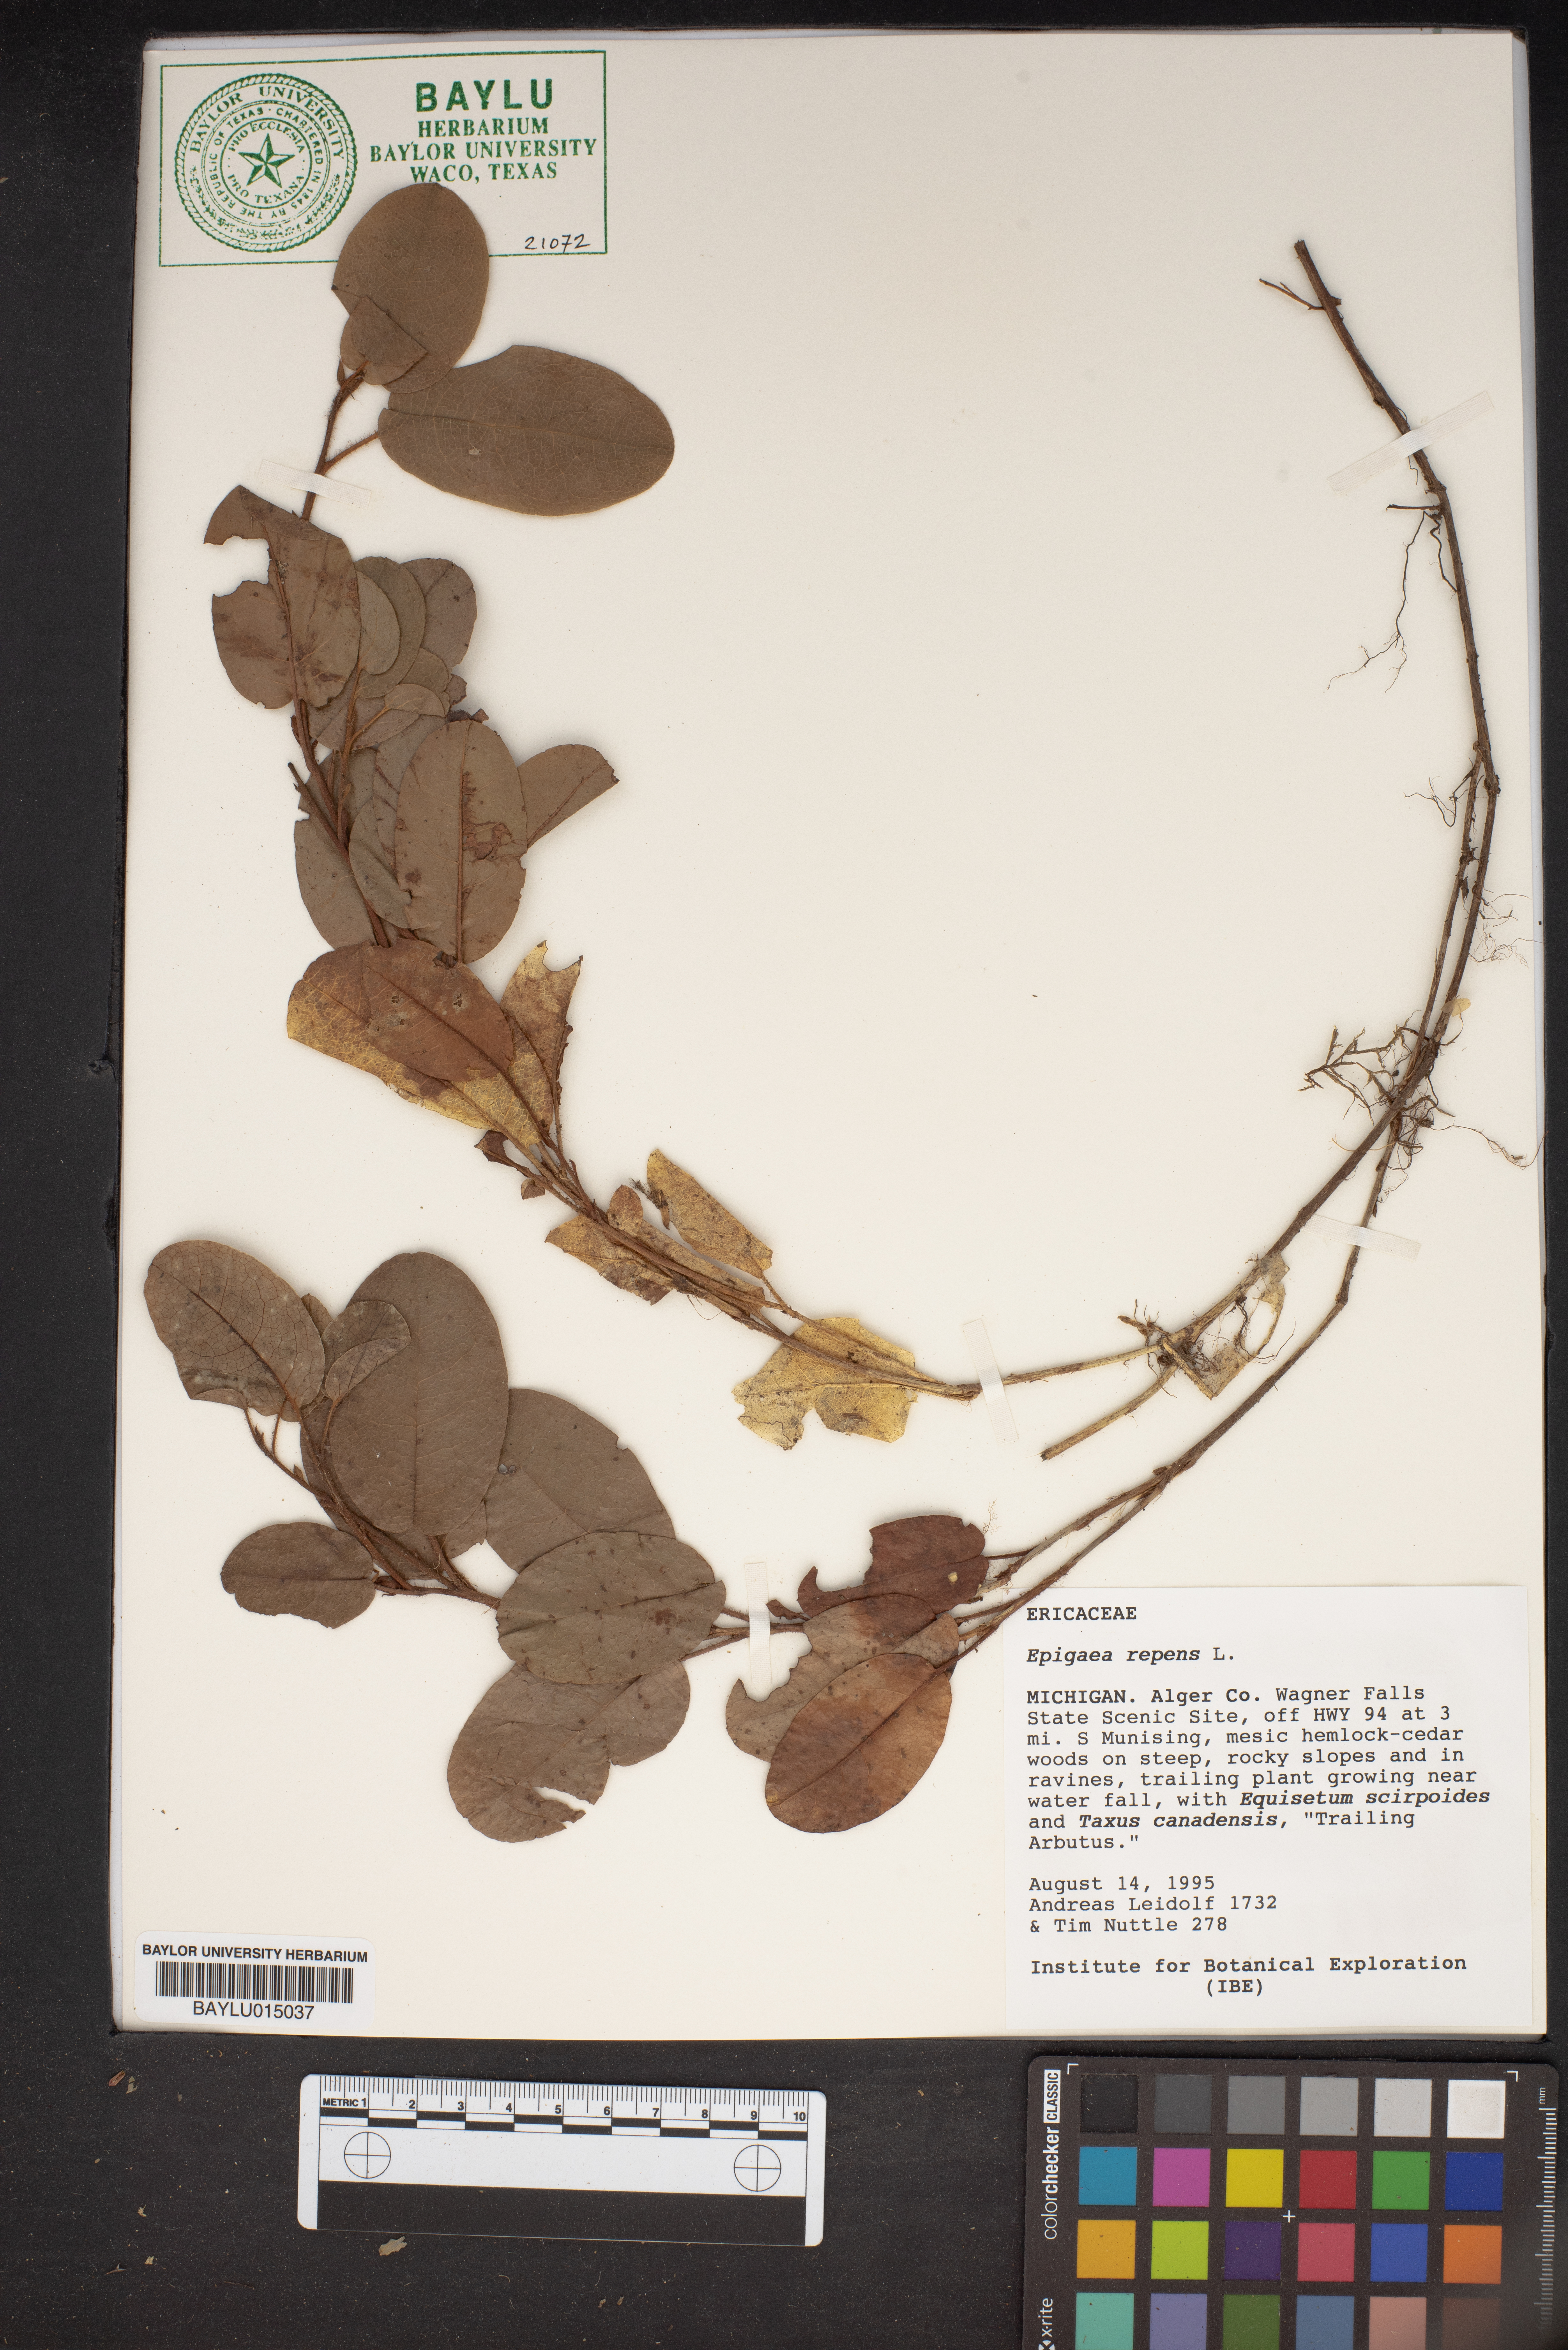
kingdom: Plantae
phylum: Tracheophyta
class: Magnoliopsida
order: Ericales
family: Ericaceae
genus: Epigaea
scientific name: Epigaea repens
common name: Gravelroot
